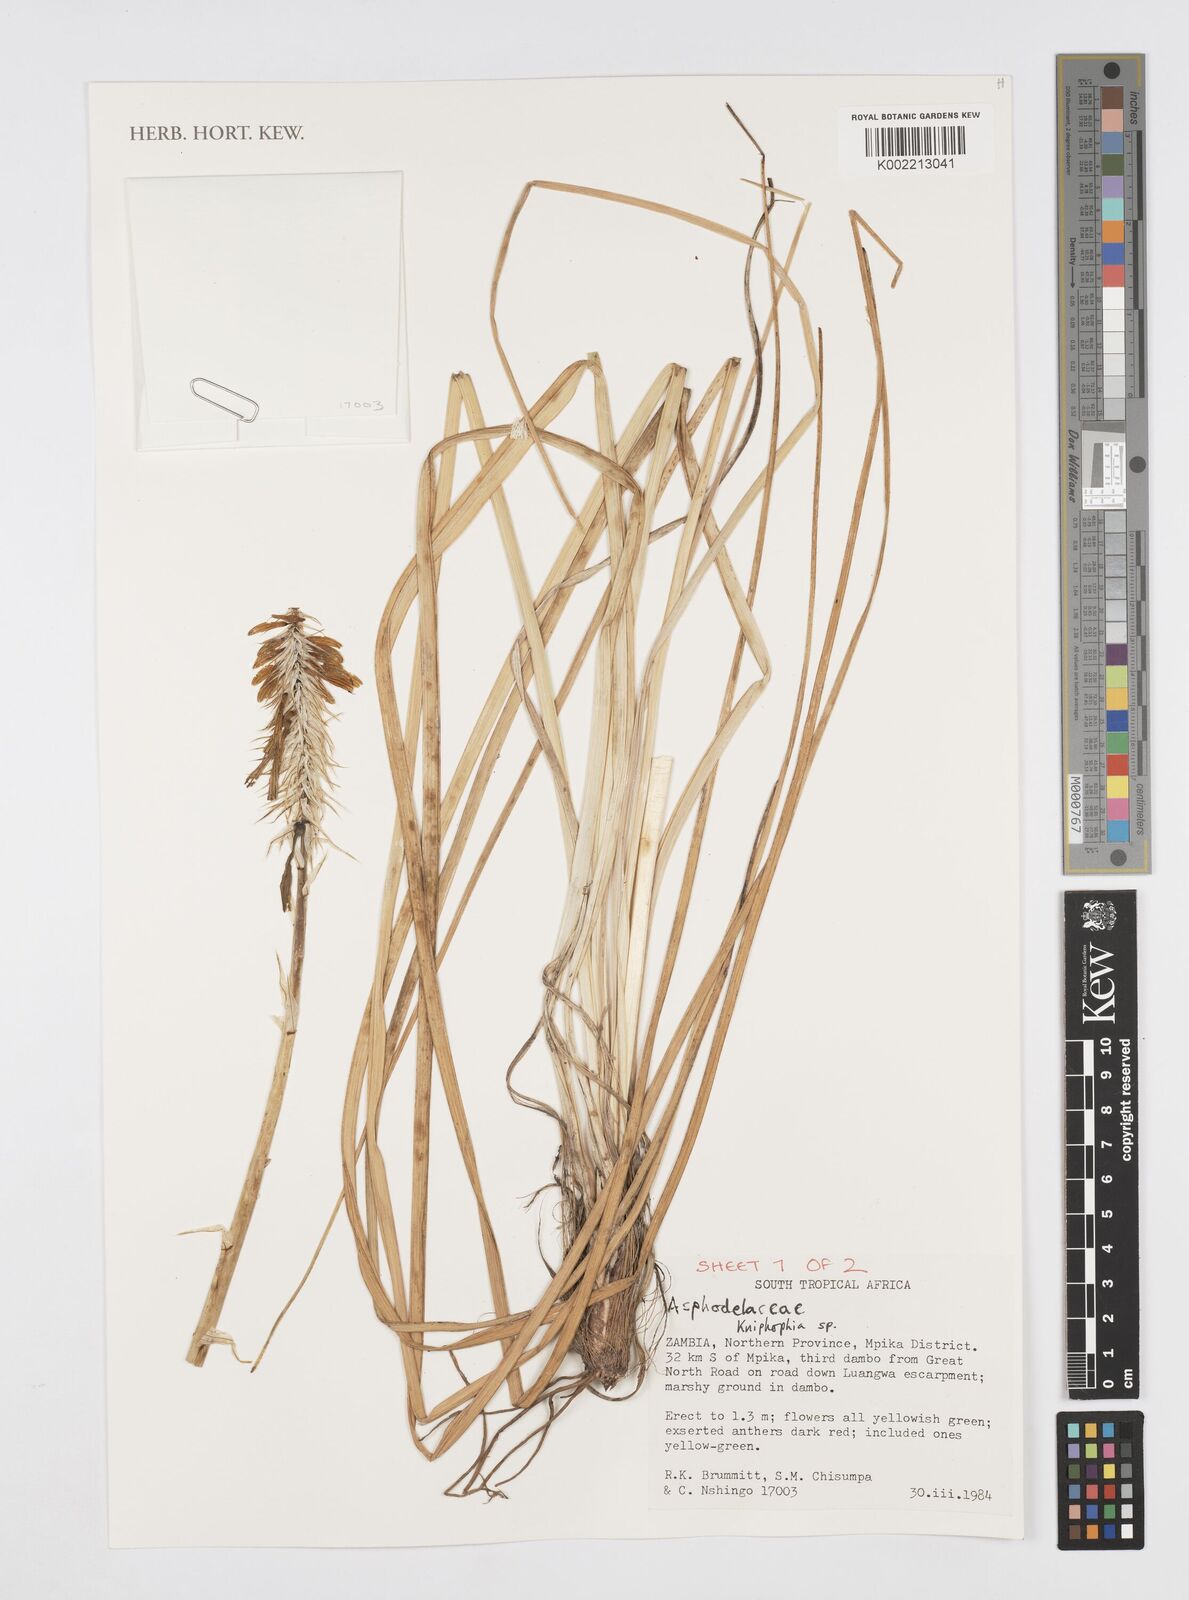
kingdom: Plantae
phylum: Tracheophyta
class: Liliopsida
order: Asparagales
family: Asphodelaceae
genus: Kniphofia
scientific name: Kniphofia
